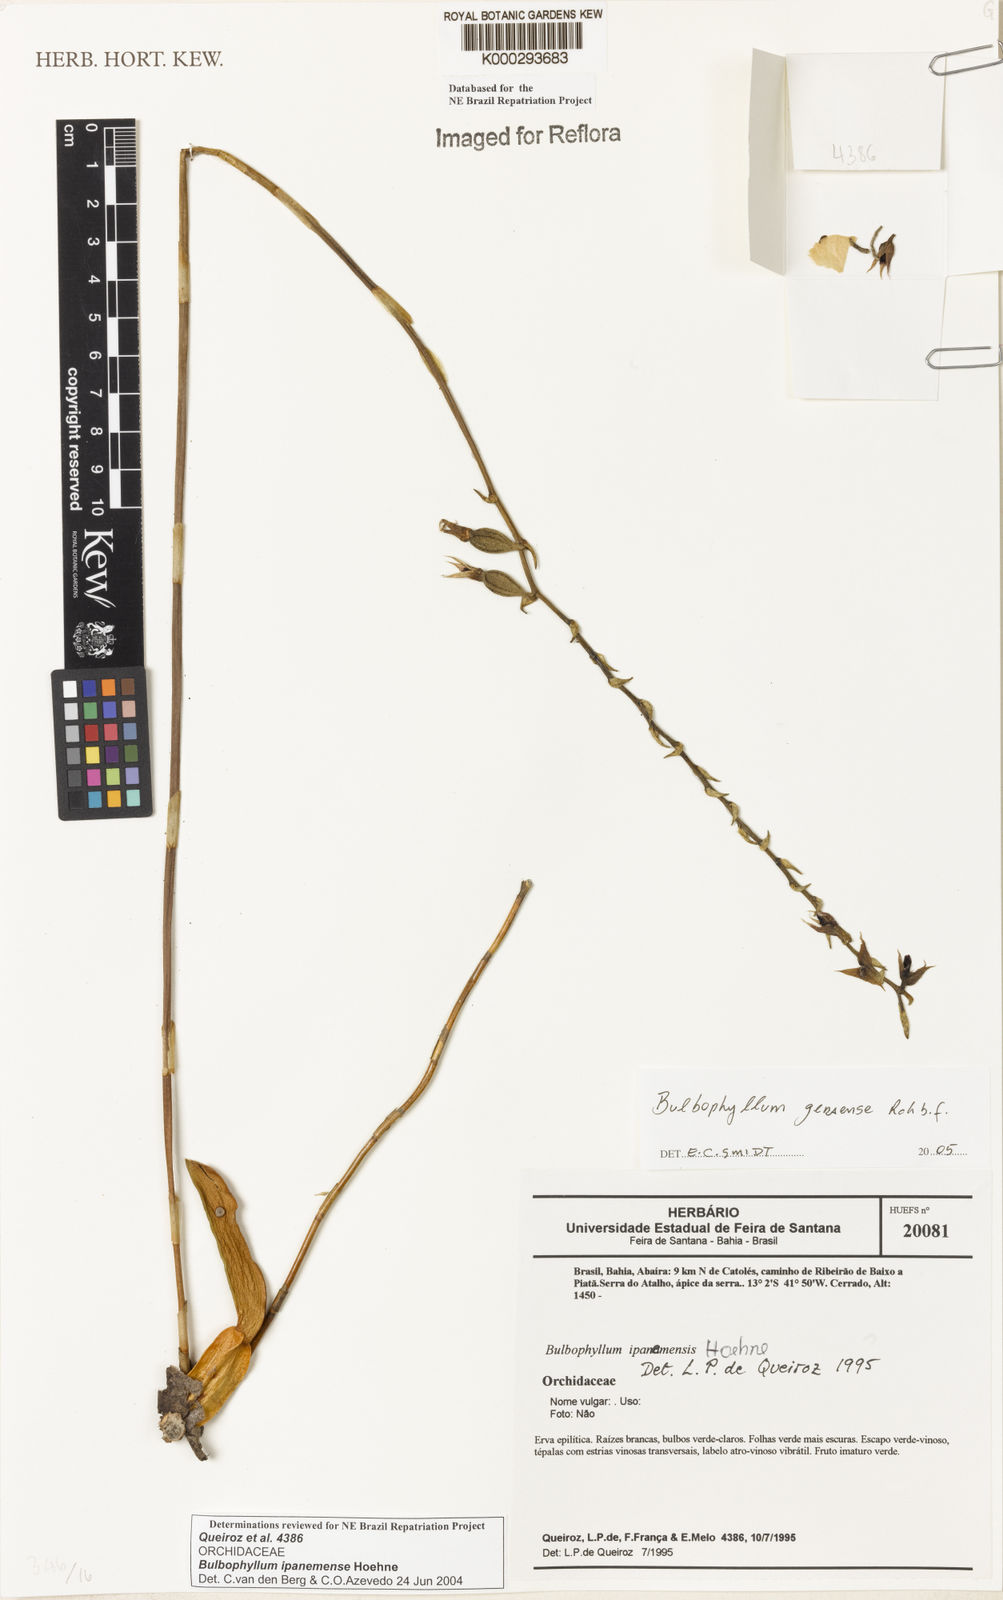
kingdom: Plantae
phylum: Tracheophyta
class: Liliopsida
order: Asparagales
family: Orchidaceae
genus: Bulbophyllum
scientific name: Bulbophyllum ipanemense
